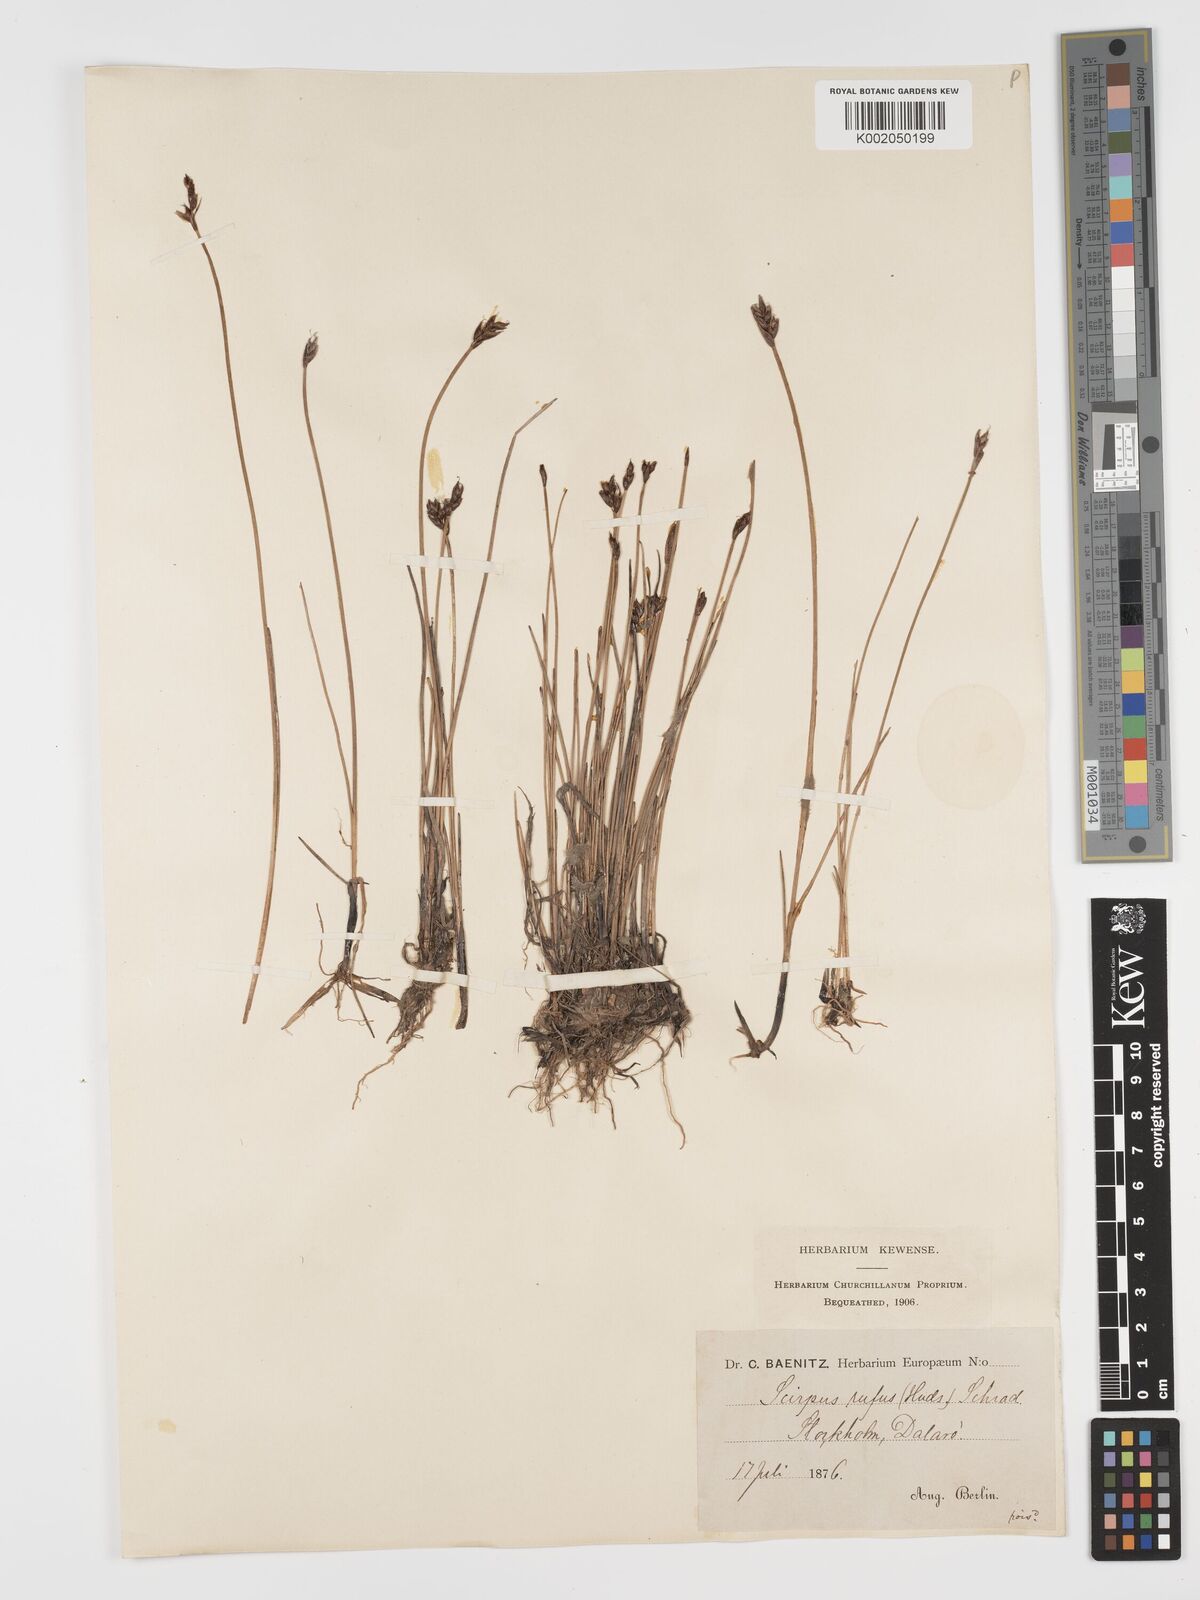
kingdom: Plantae
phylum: Tracheophyta
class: Liliopsida
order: Poales
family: Cyperaceae
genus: Blysmus
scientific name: Blysmus rufus
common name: Saltmarsh flat-sedge
